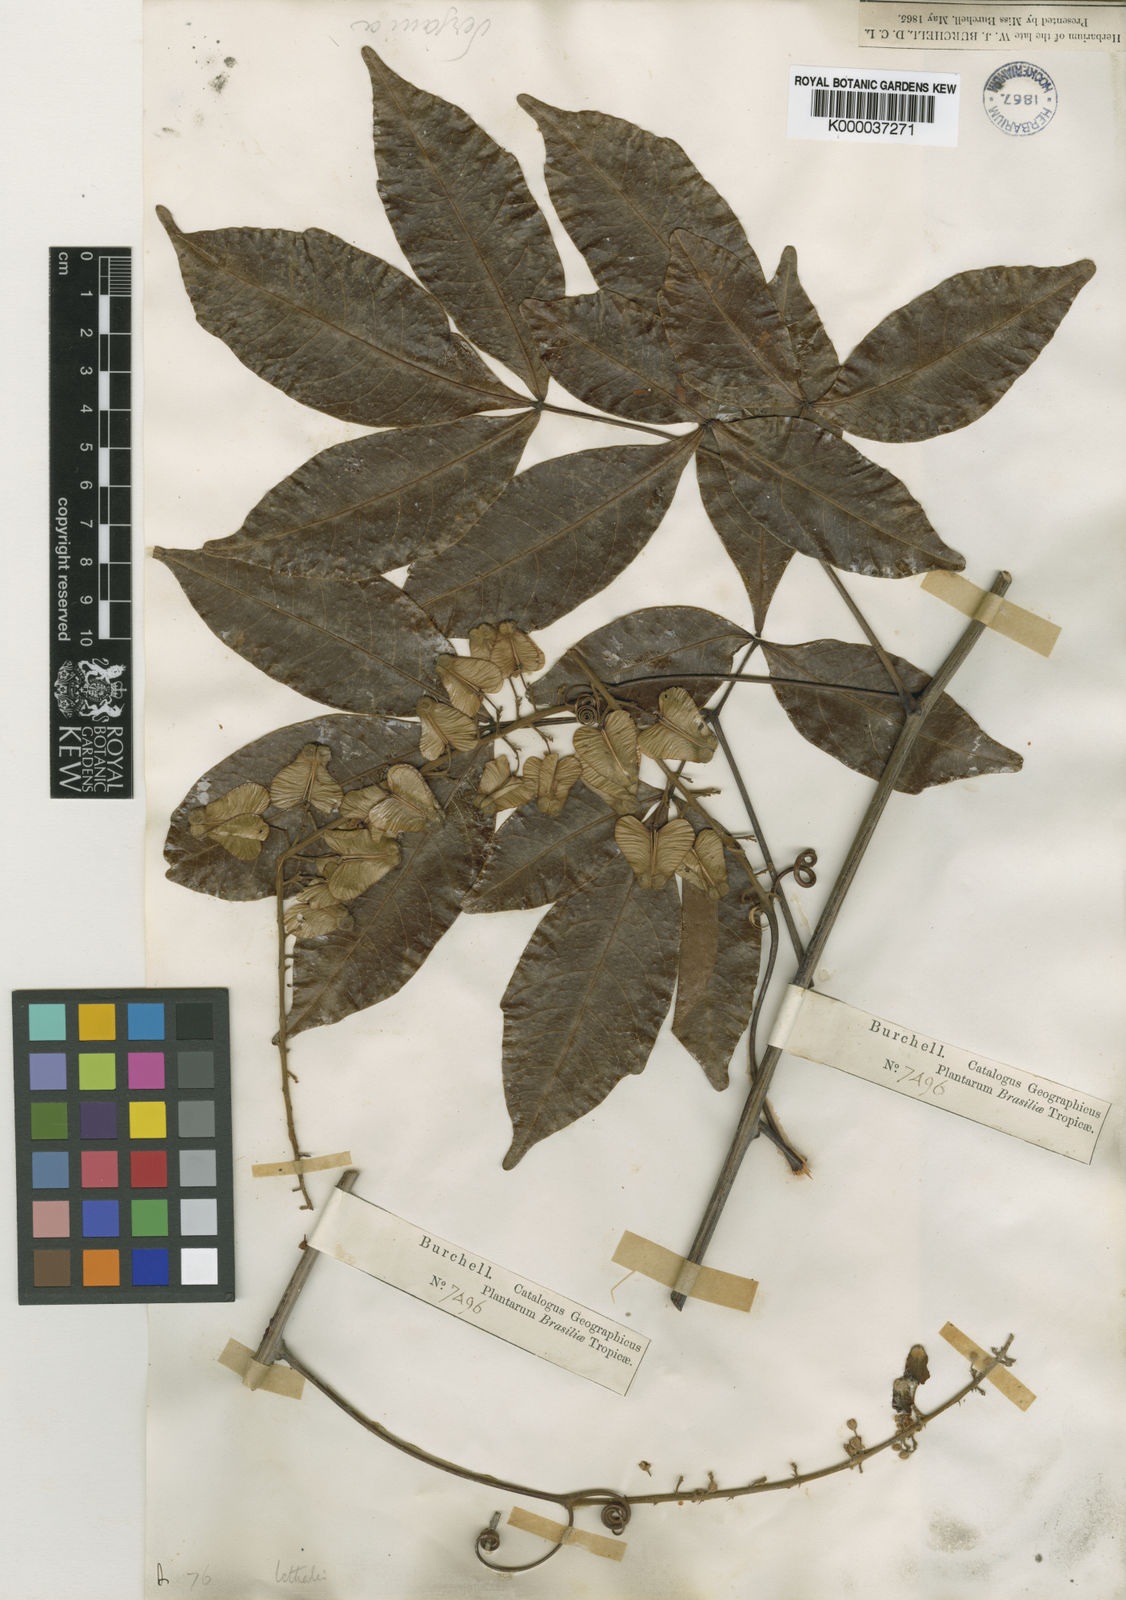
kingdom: Plantae
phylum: Tracheophyta
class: Magnoliopsida
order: Sapindales
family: Sapindaceae
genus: Serjania
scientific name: Serjania lethalis
